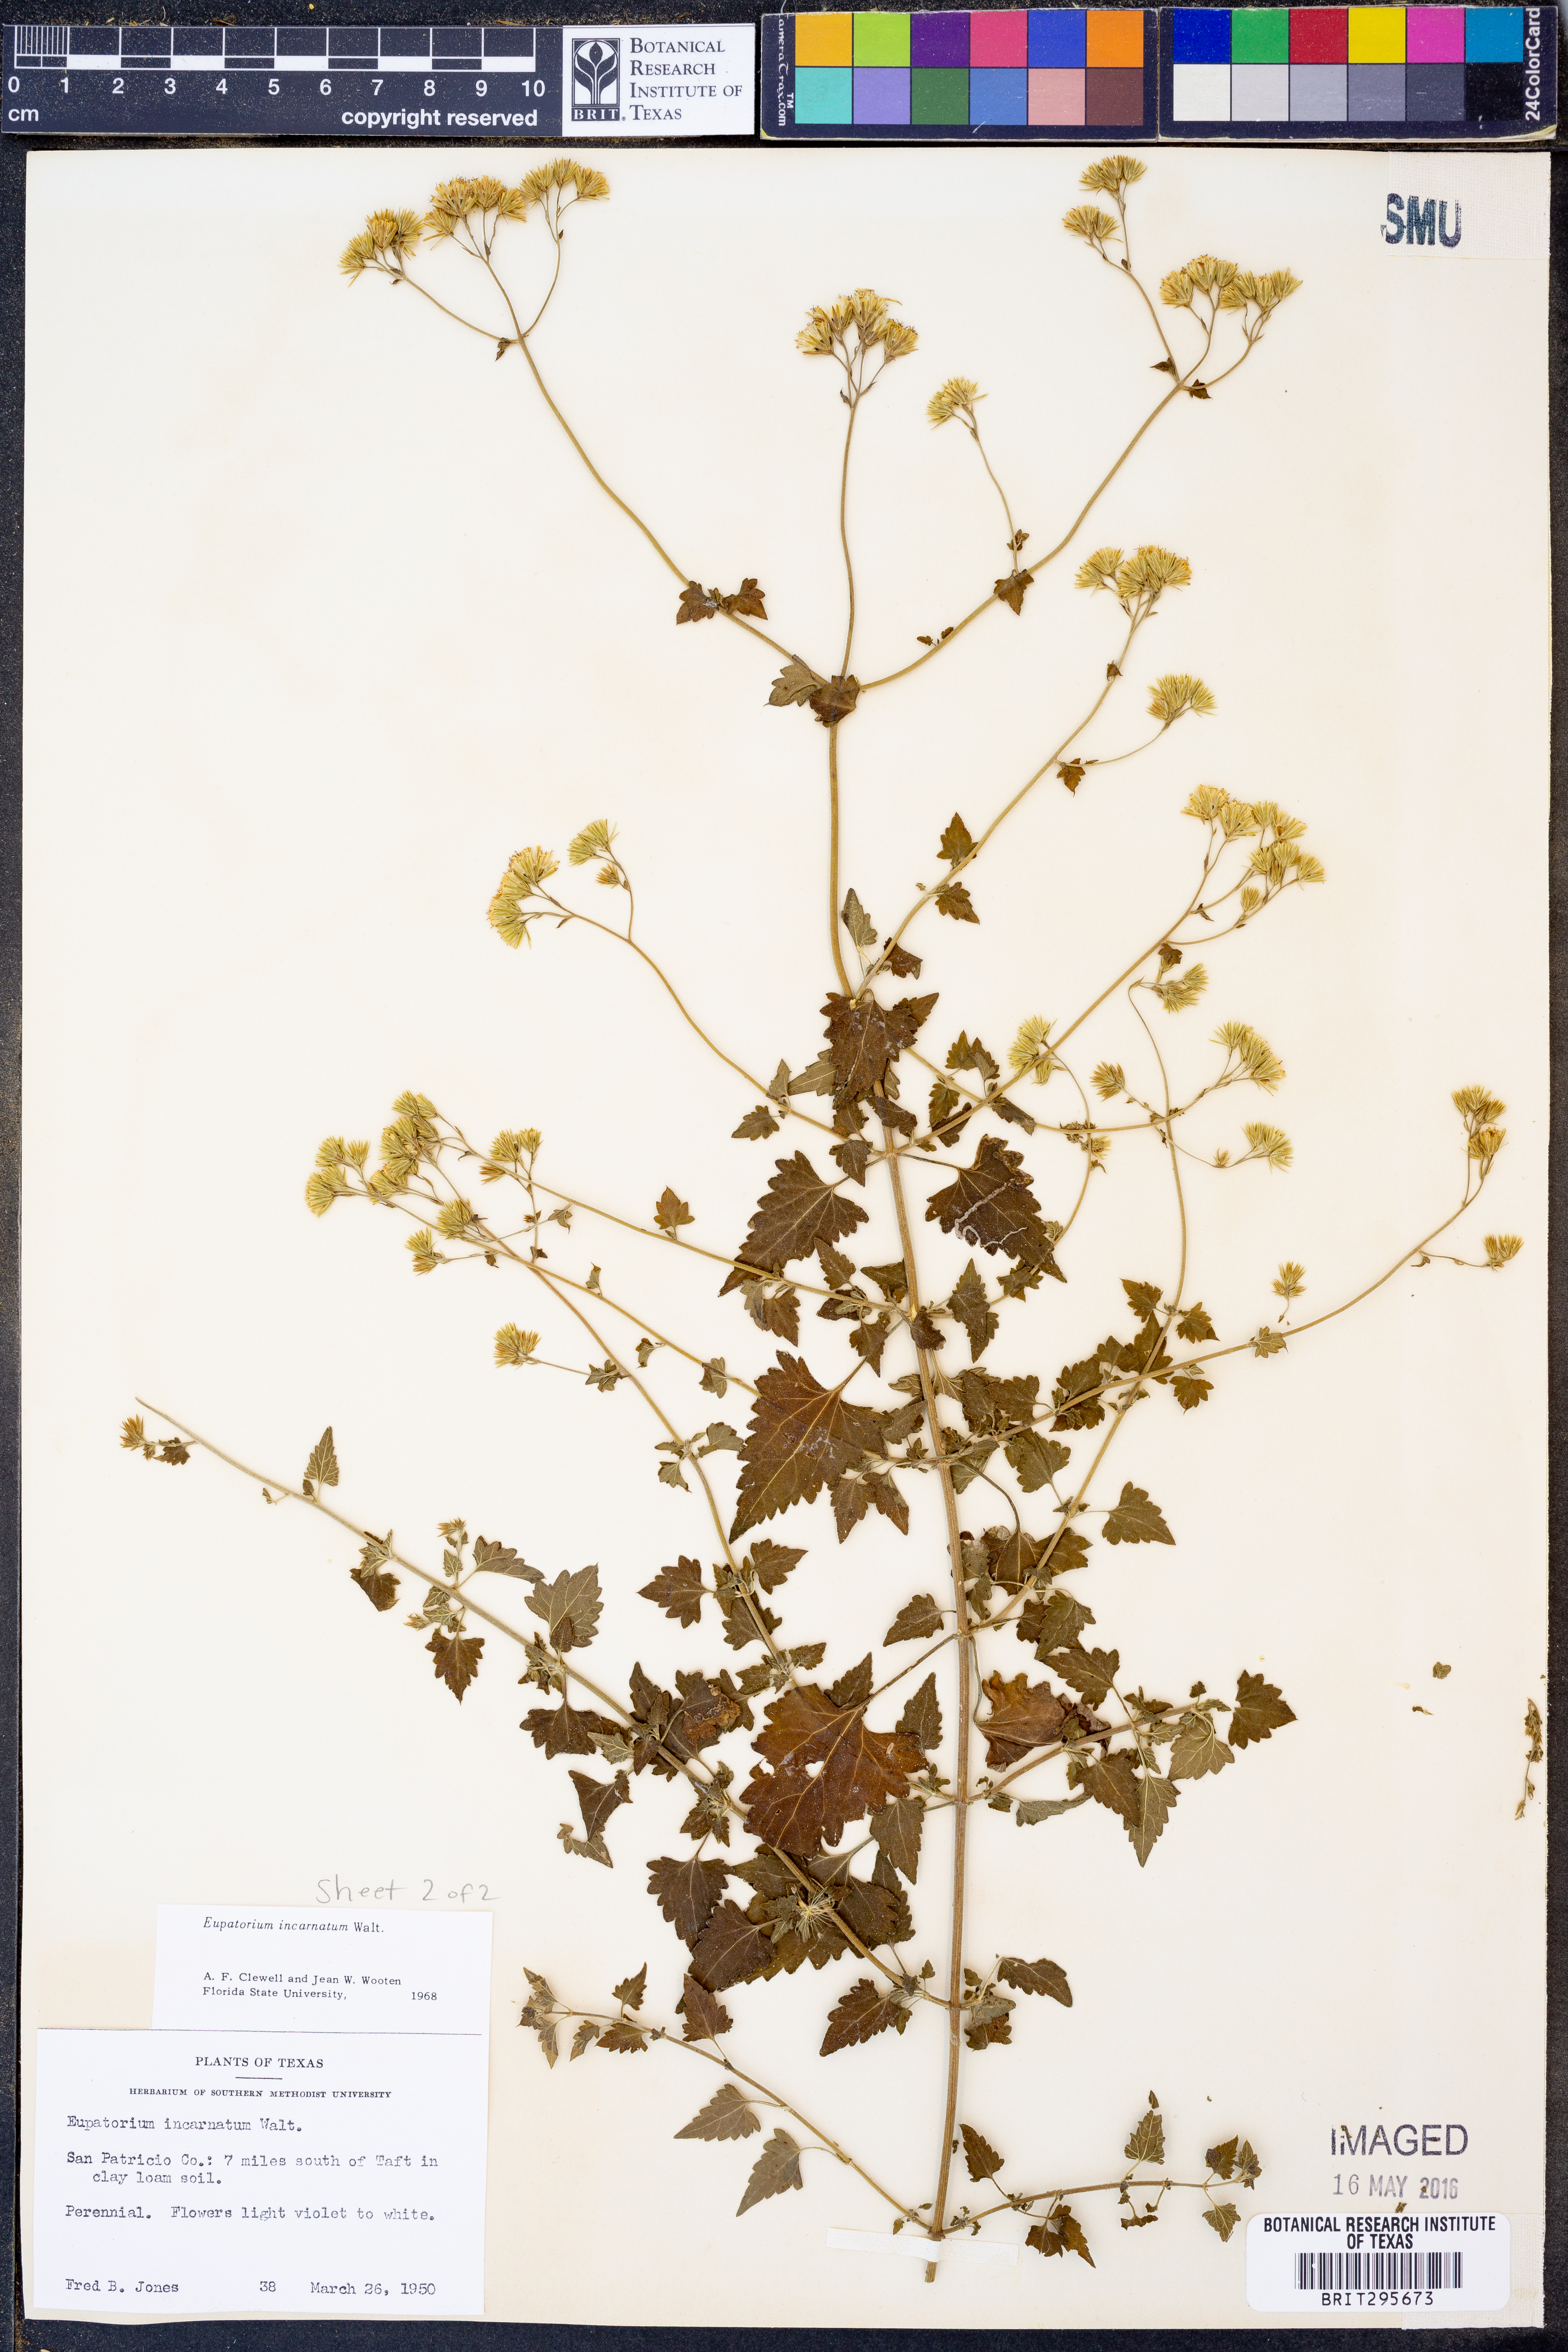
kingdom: Plantae
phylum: Tracheophyta
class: Magnoliopsida
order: Asterales
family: Asteraceae
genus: Fleischmannia
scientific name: Fleischmannia incarnata
